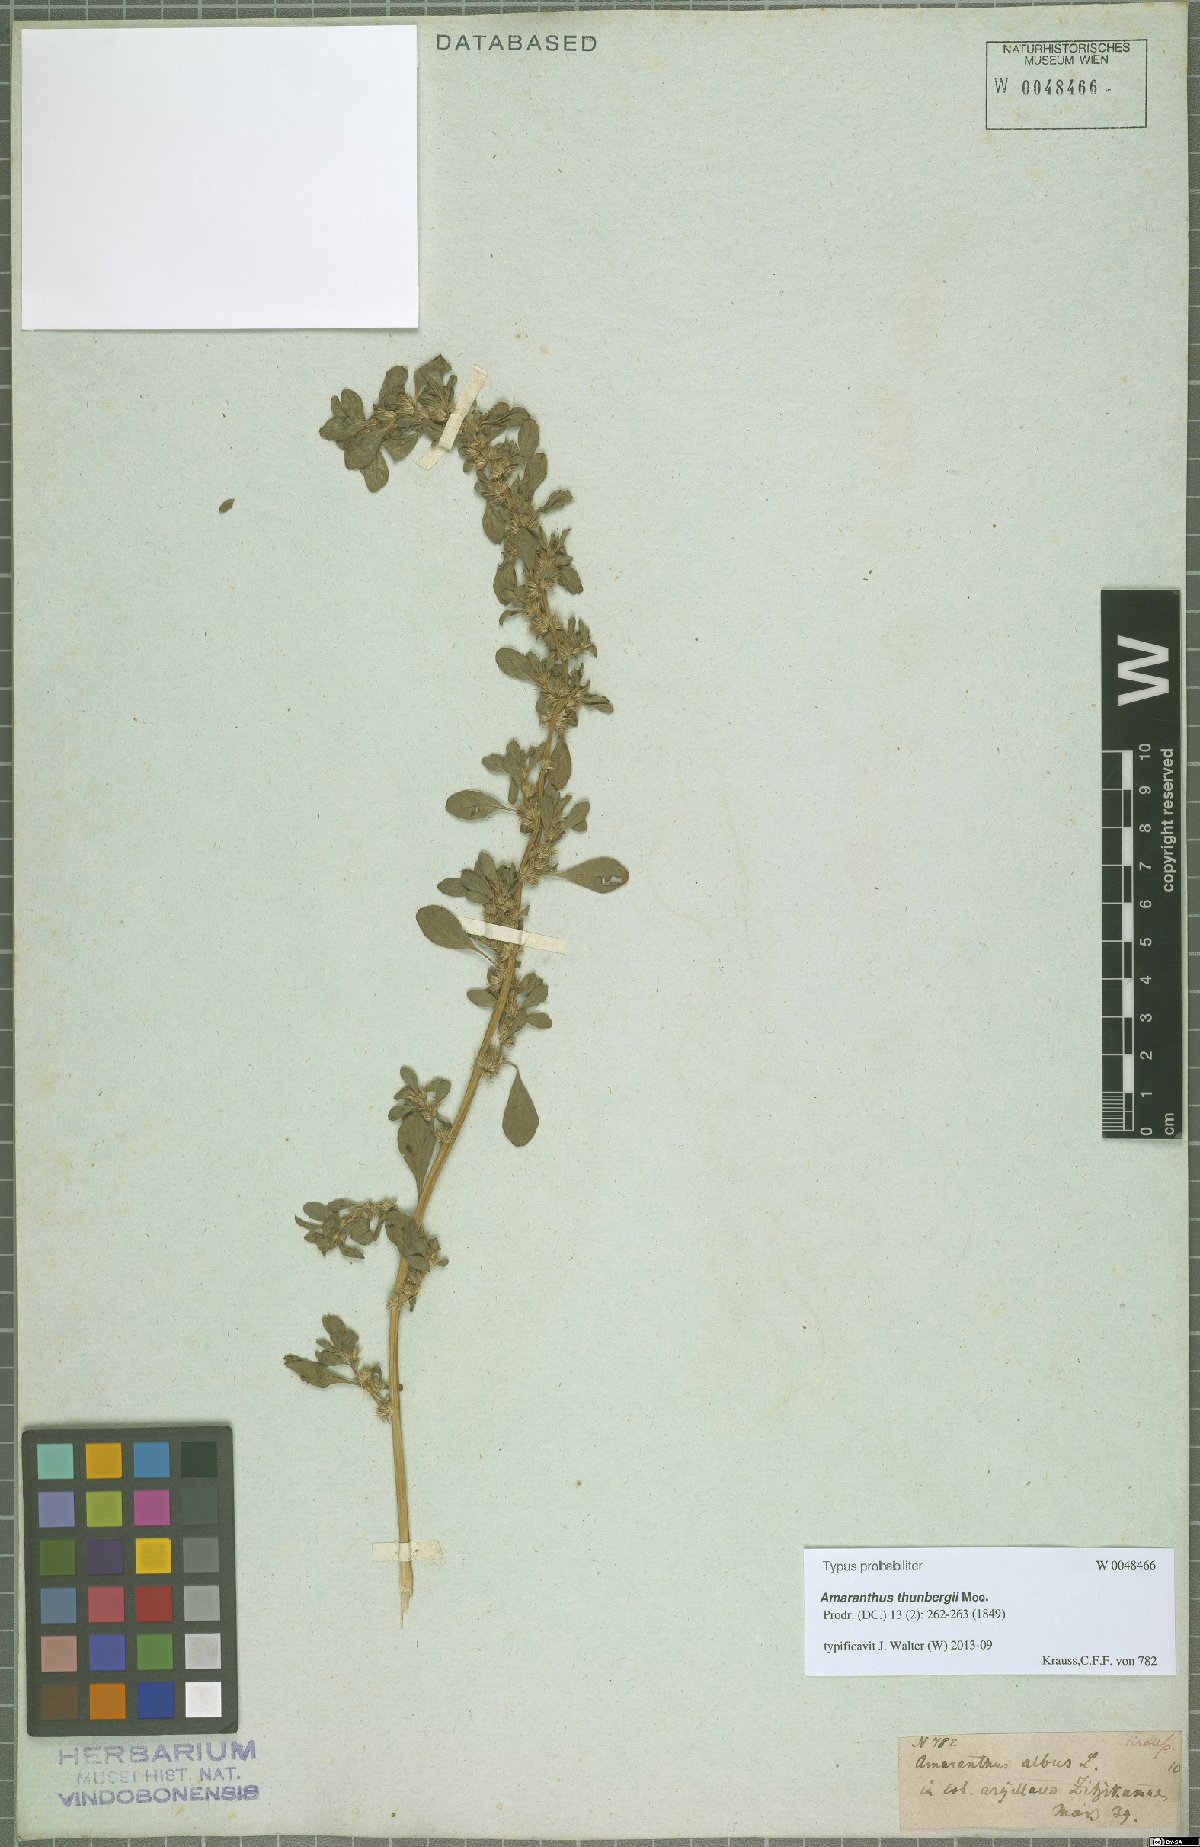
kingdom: Plantae
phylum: Tracheophyta
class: Magnoliopsida
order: Caryophyllales
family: Amaranthaceae
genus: Amaranthus
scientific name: Amaranthus thunbergii
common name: Thunberg's pigweed
